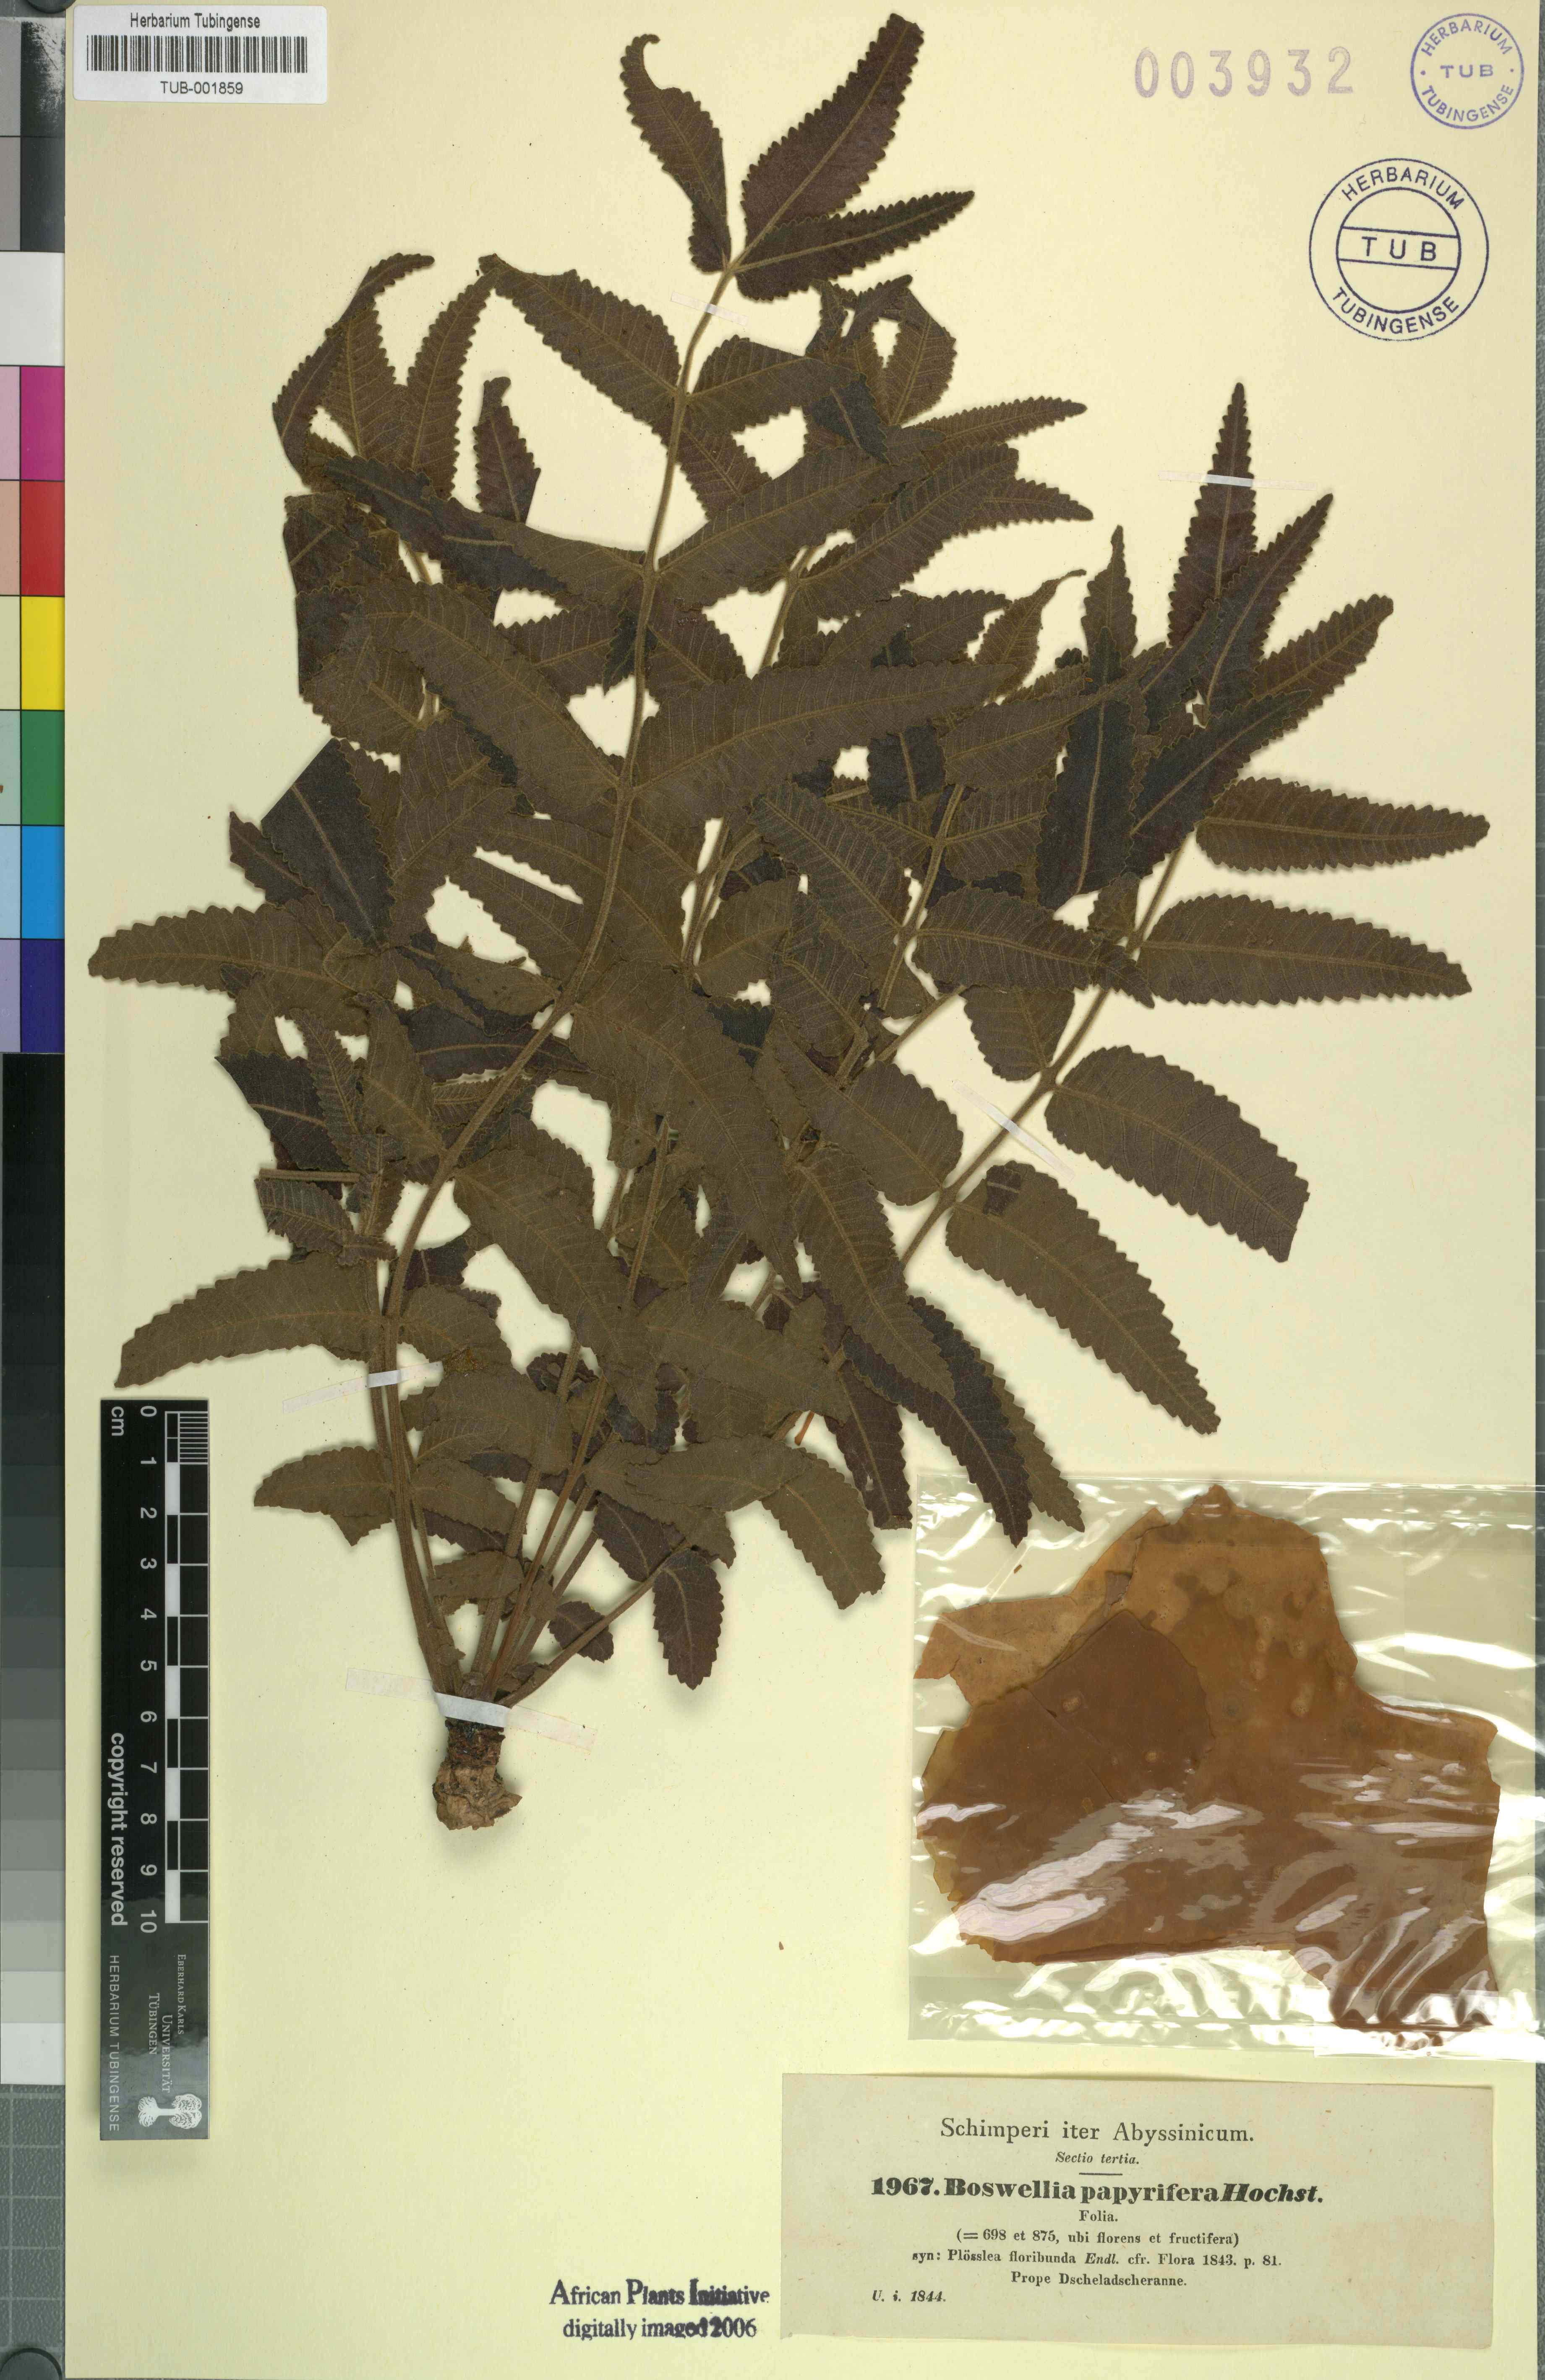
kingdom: Plantae
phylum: Tracheophyta
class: Magnoliopsida
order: Sapindales
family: Burseraceae
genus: Boswellia
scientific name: Boswellia papyrifera
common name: Sudanese frankincense
